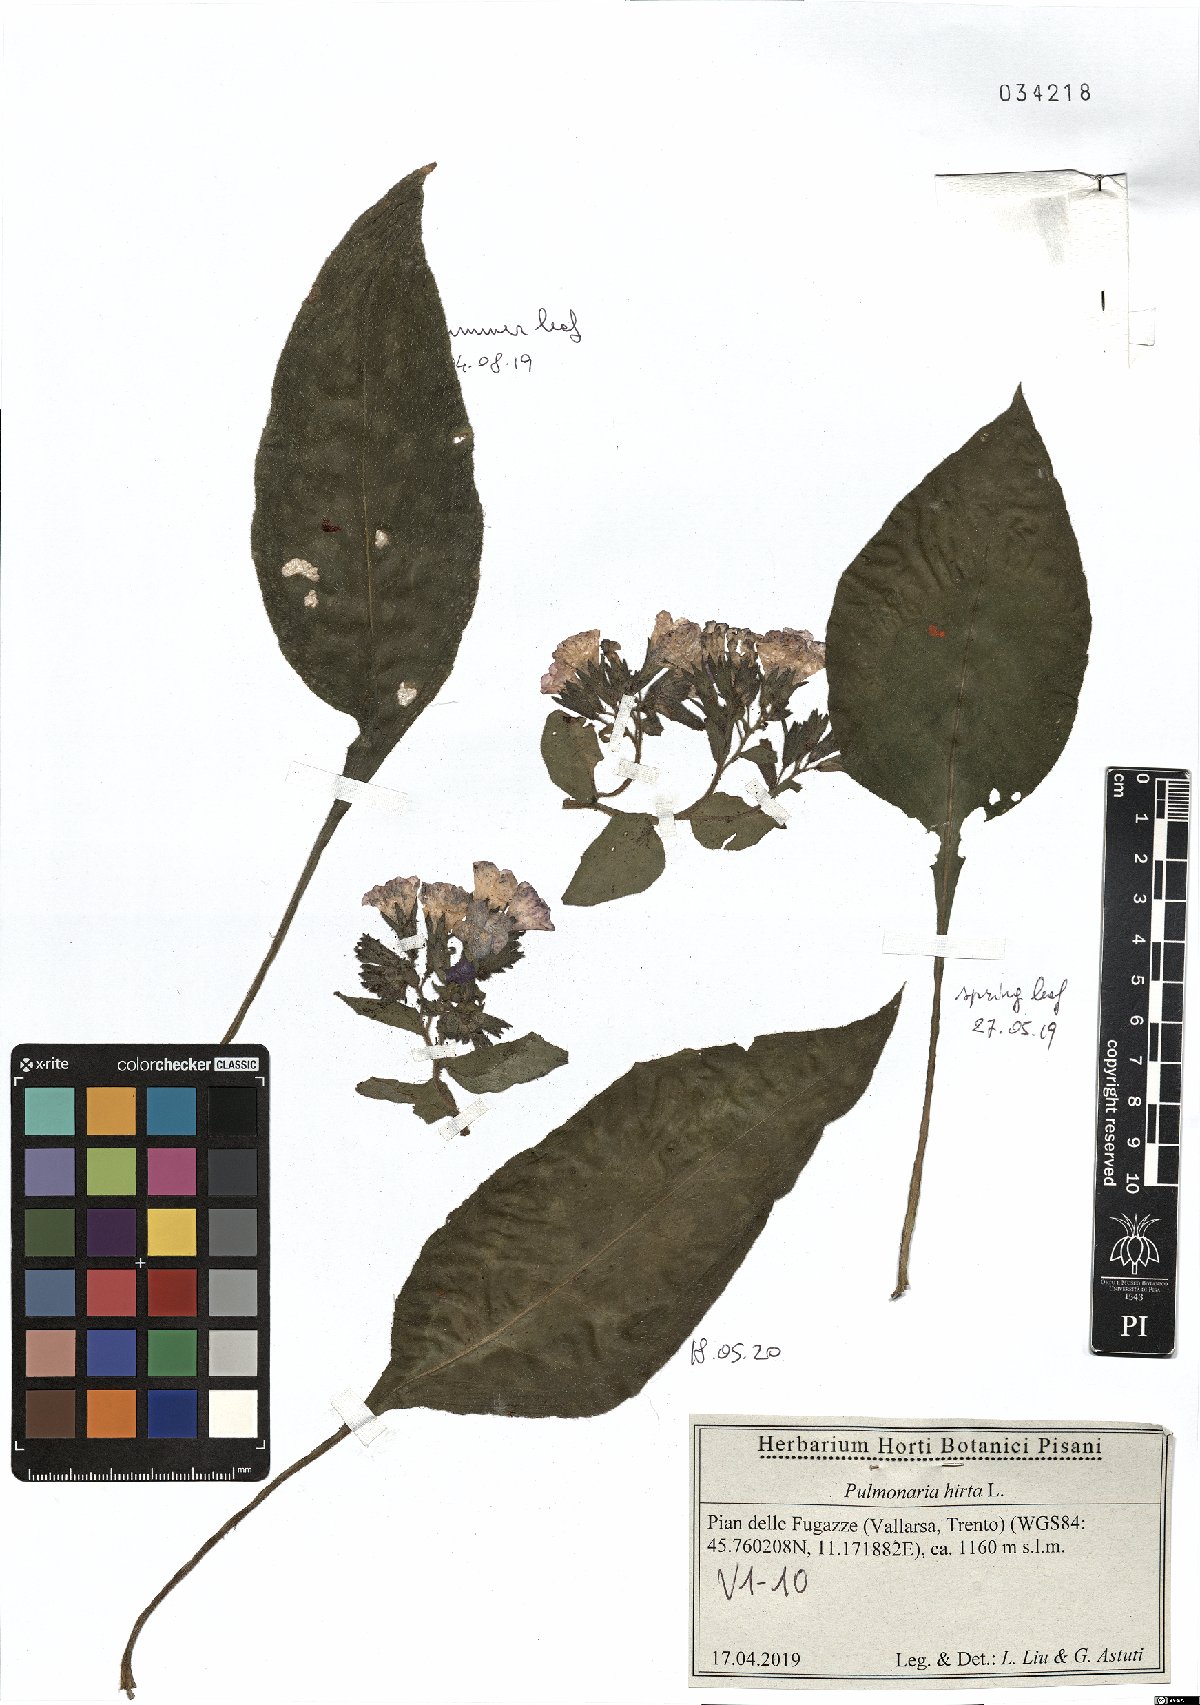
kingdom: Plantae
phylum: Tracheophyta
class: Magnoliopsida
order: Boraginales
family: Boraginaceae
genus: Pulmonaria
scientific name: Pulmonaria hirta
